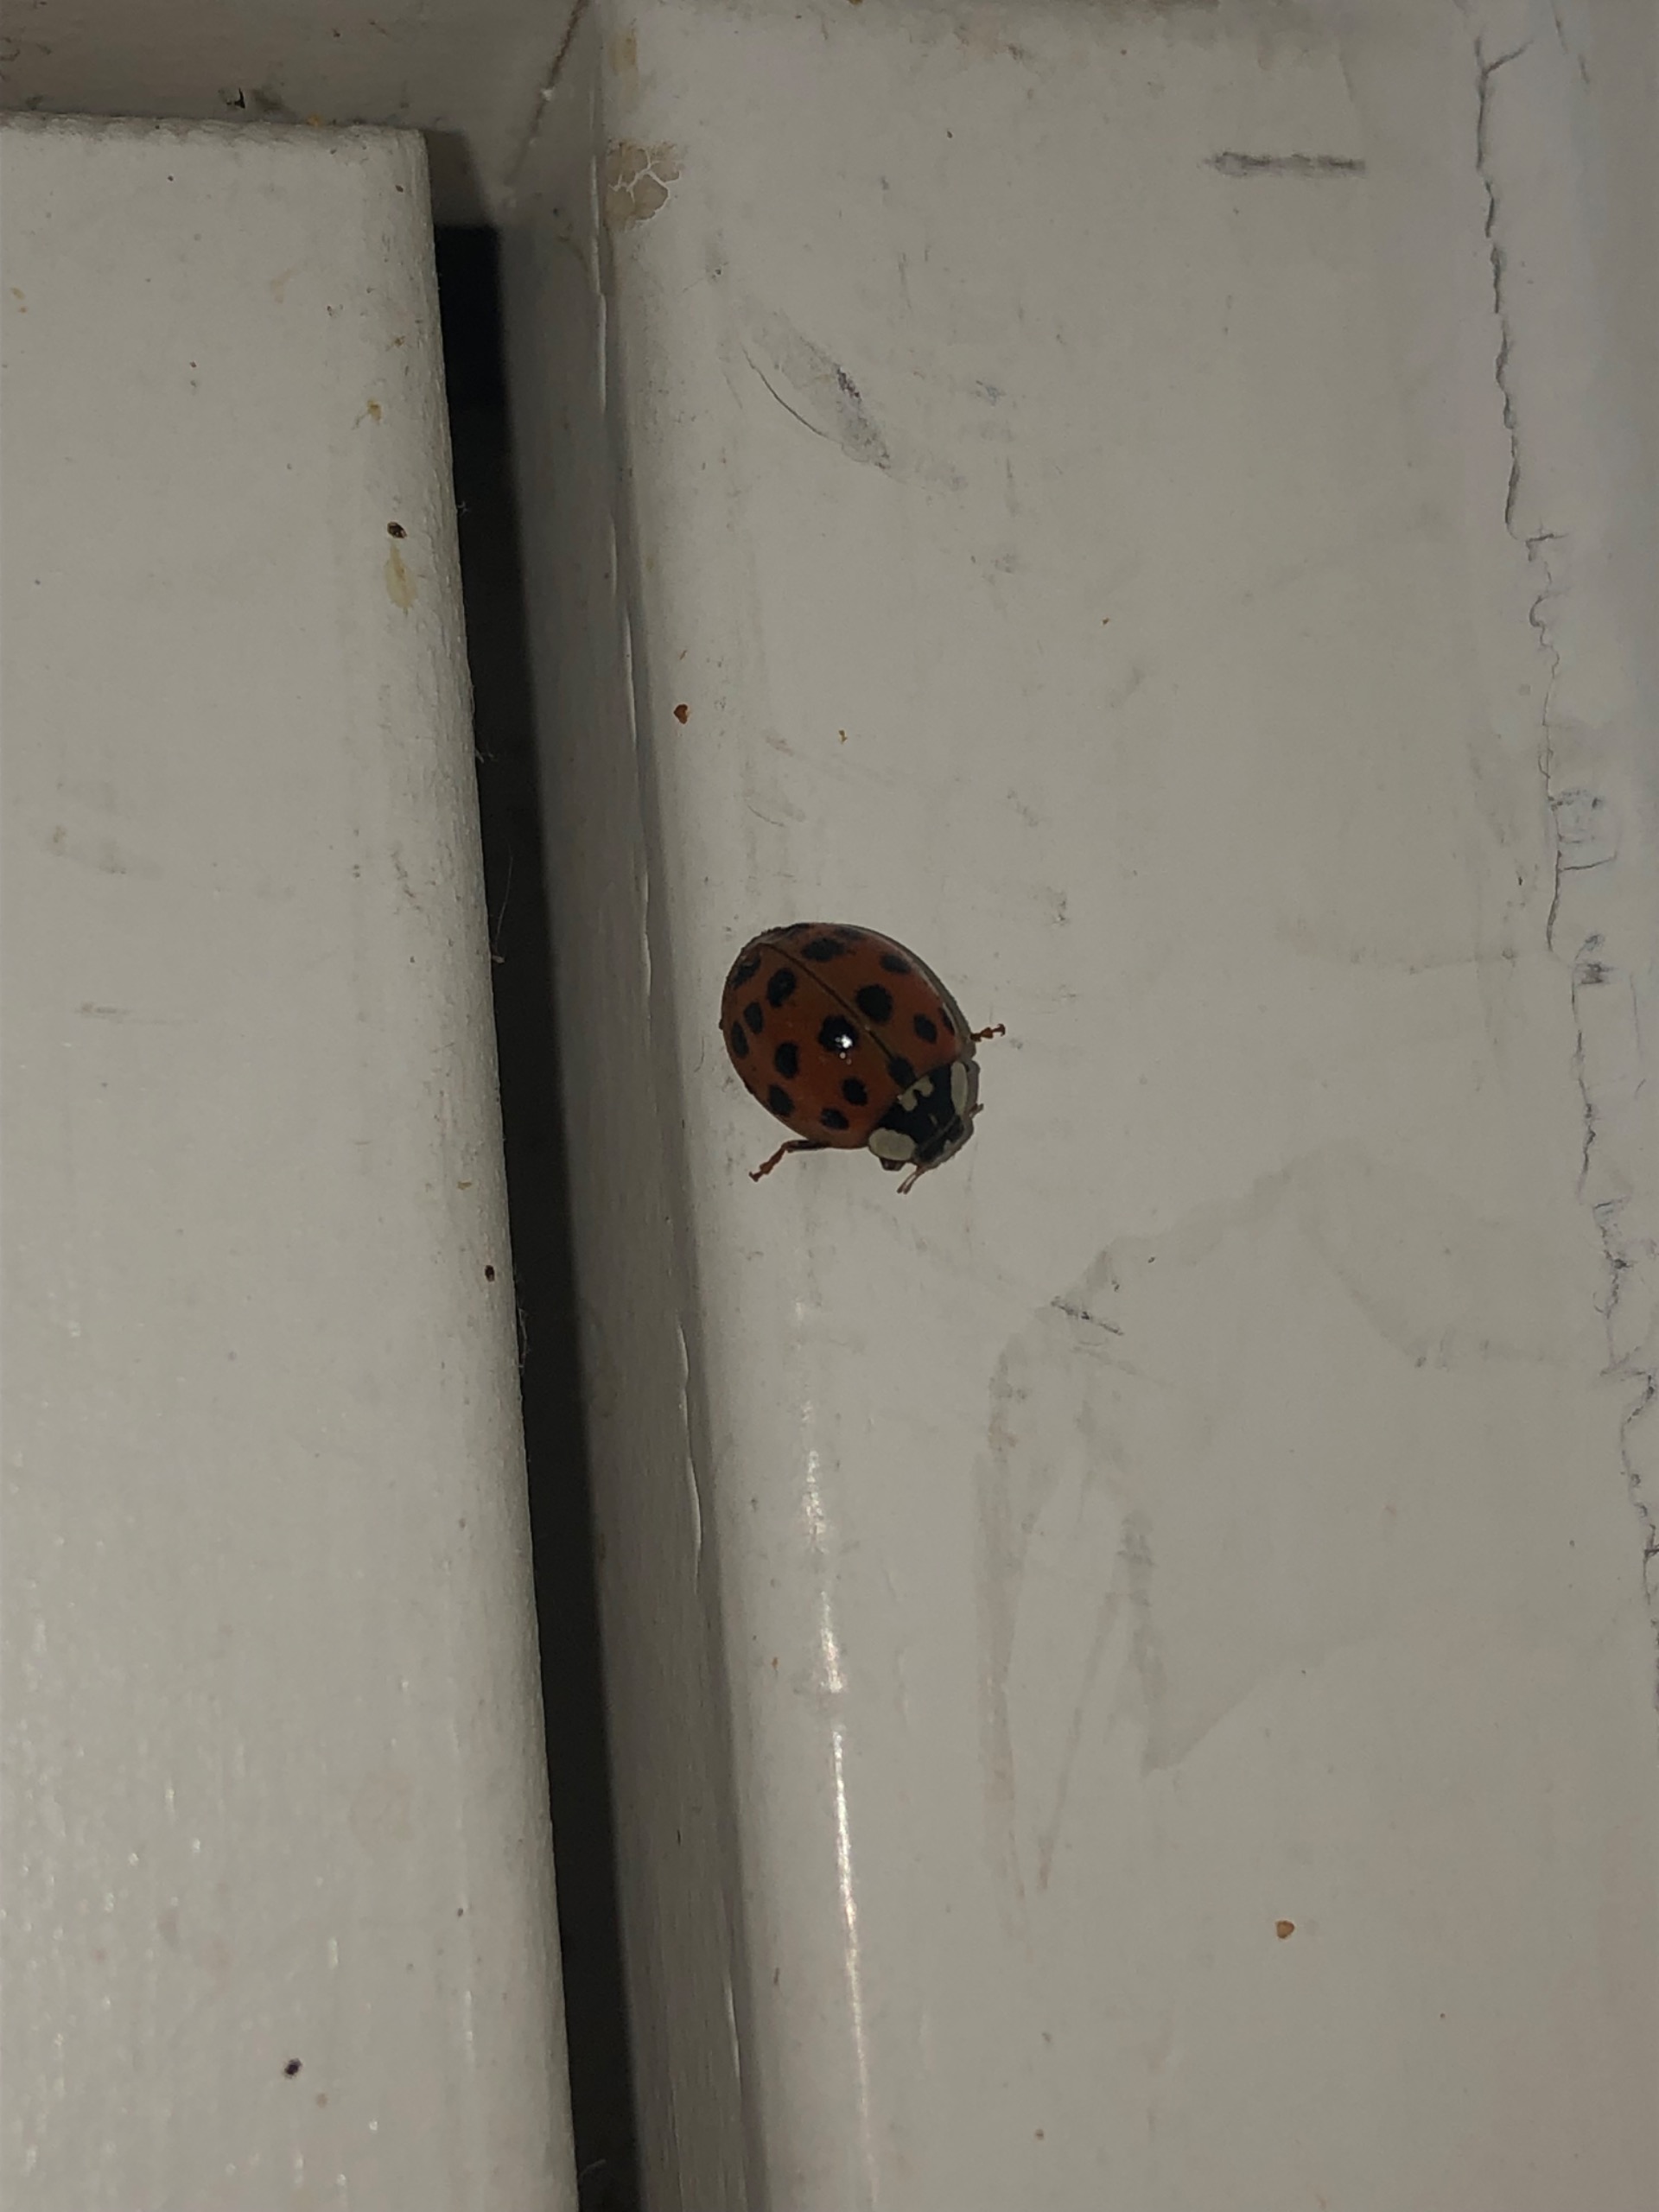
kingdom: Animalia
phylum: Arthropoda
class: Insecta
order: Coleoptera
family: Coccinellidae
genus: Harmonia
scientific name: Harmonia axyridis
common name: Harlekinmariehøne
